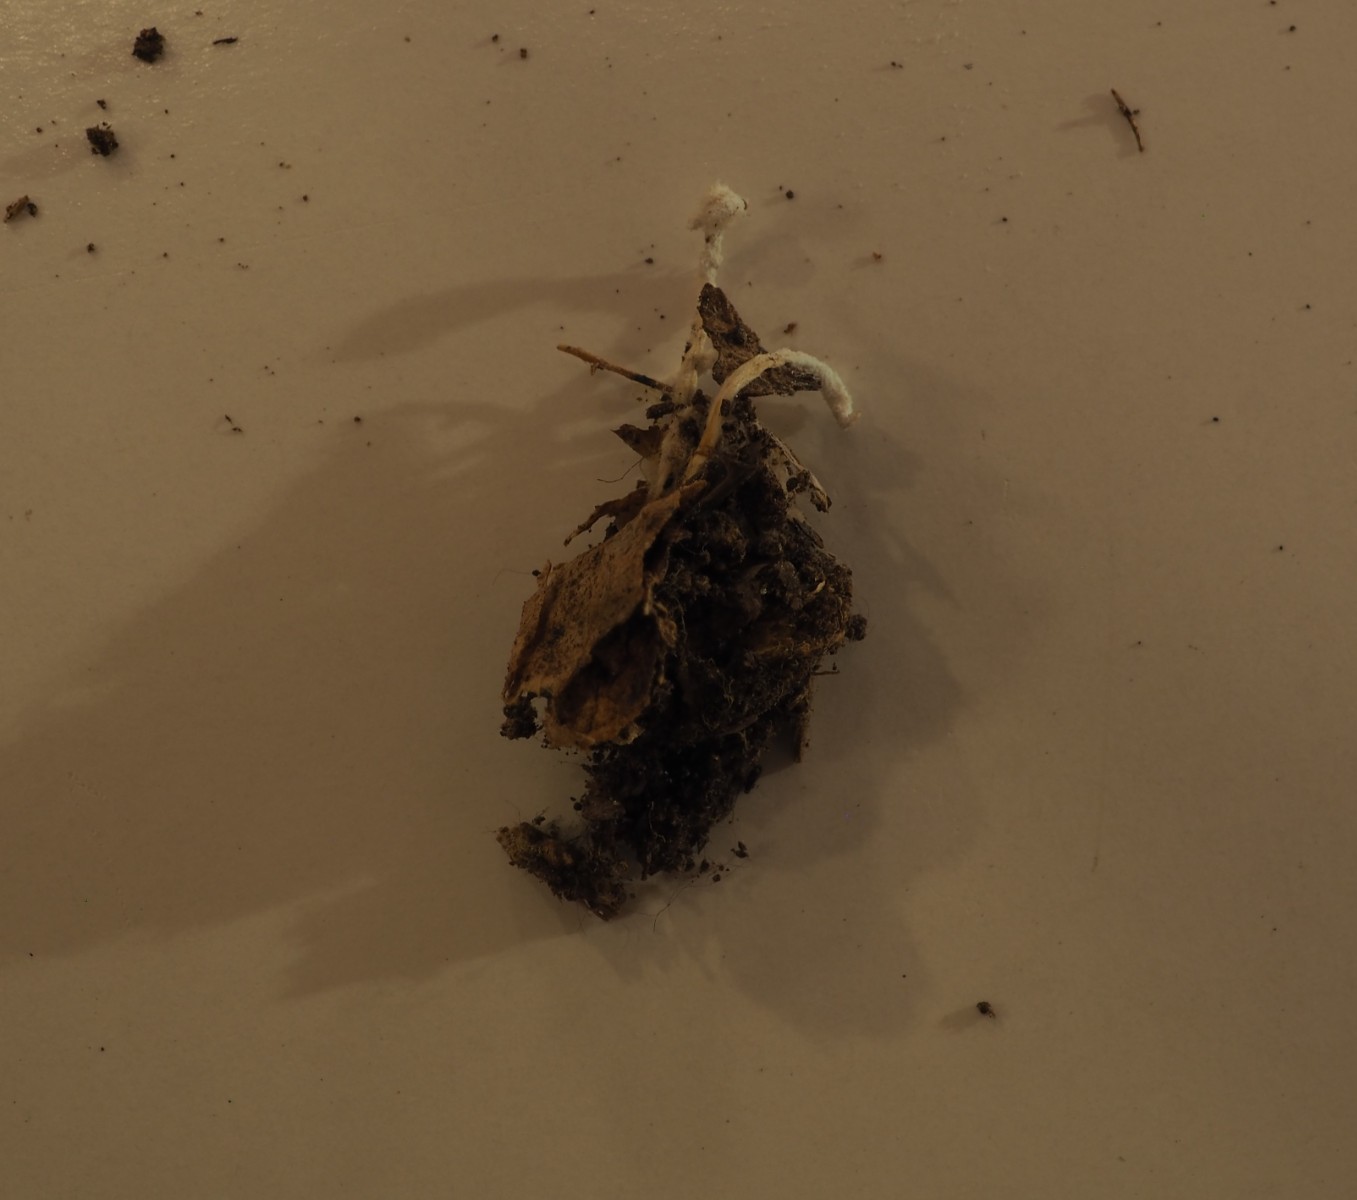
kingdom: Fungi
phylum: Ascomycota
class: Sordariomycetes
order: Hypocreales
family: Cordycipitaceae
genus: Cordyceps
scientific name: Cordyceps farinosa
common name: melet snyltekølle
